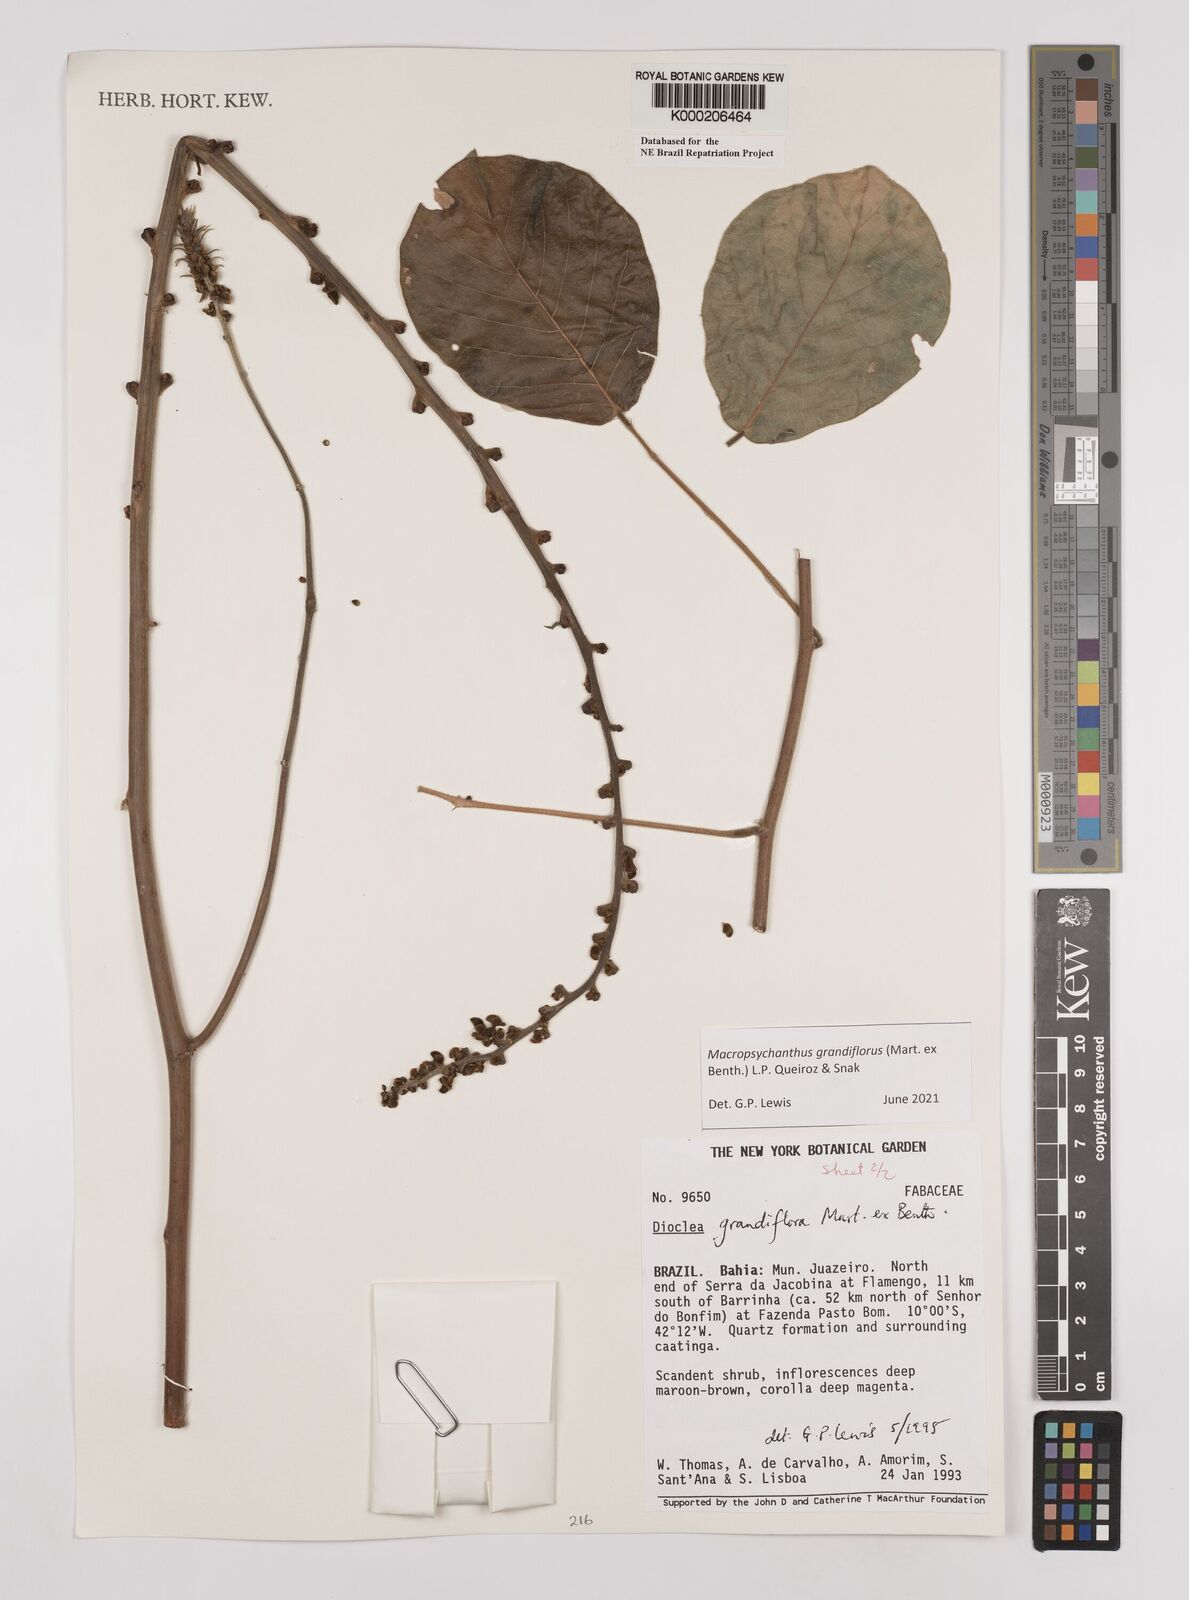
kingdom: Plantae
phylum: Tracheophyta
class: Magnoliopsida
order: Fabales
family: Fabaceae
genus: Macropsychanthus
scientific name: Macropsychanthus grandiflorus
